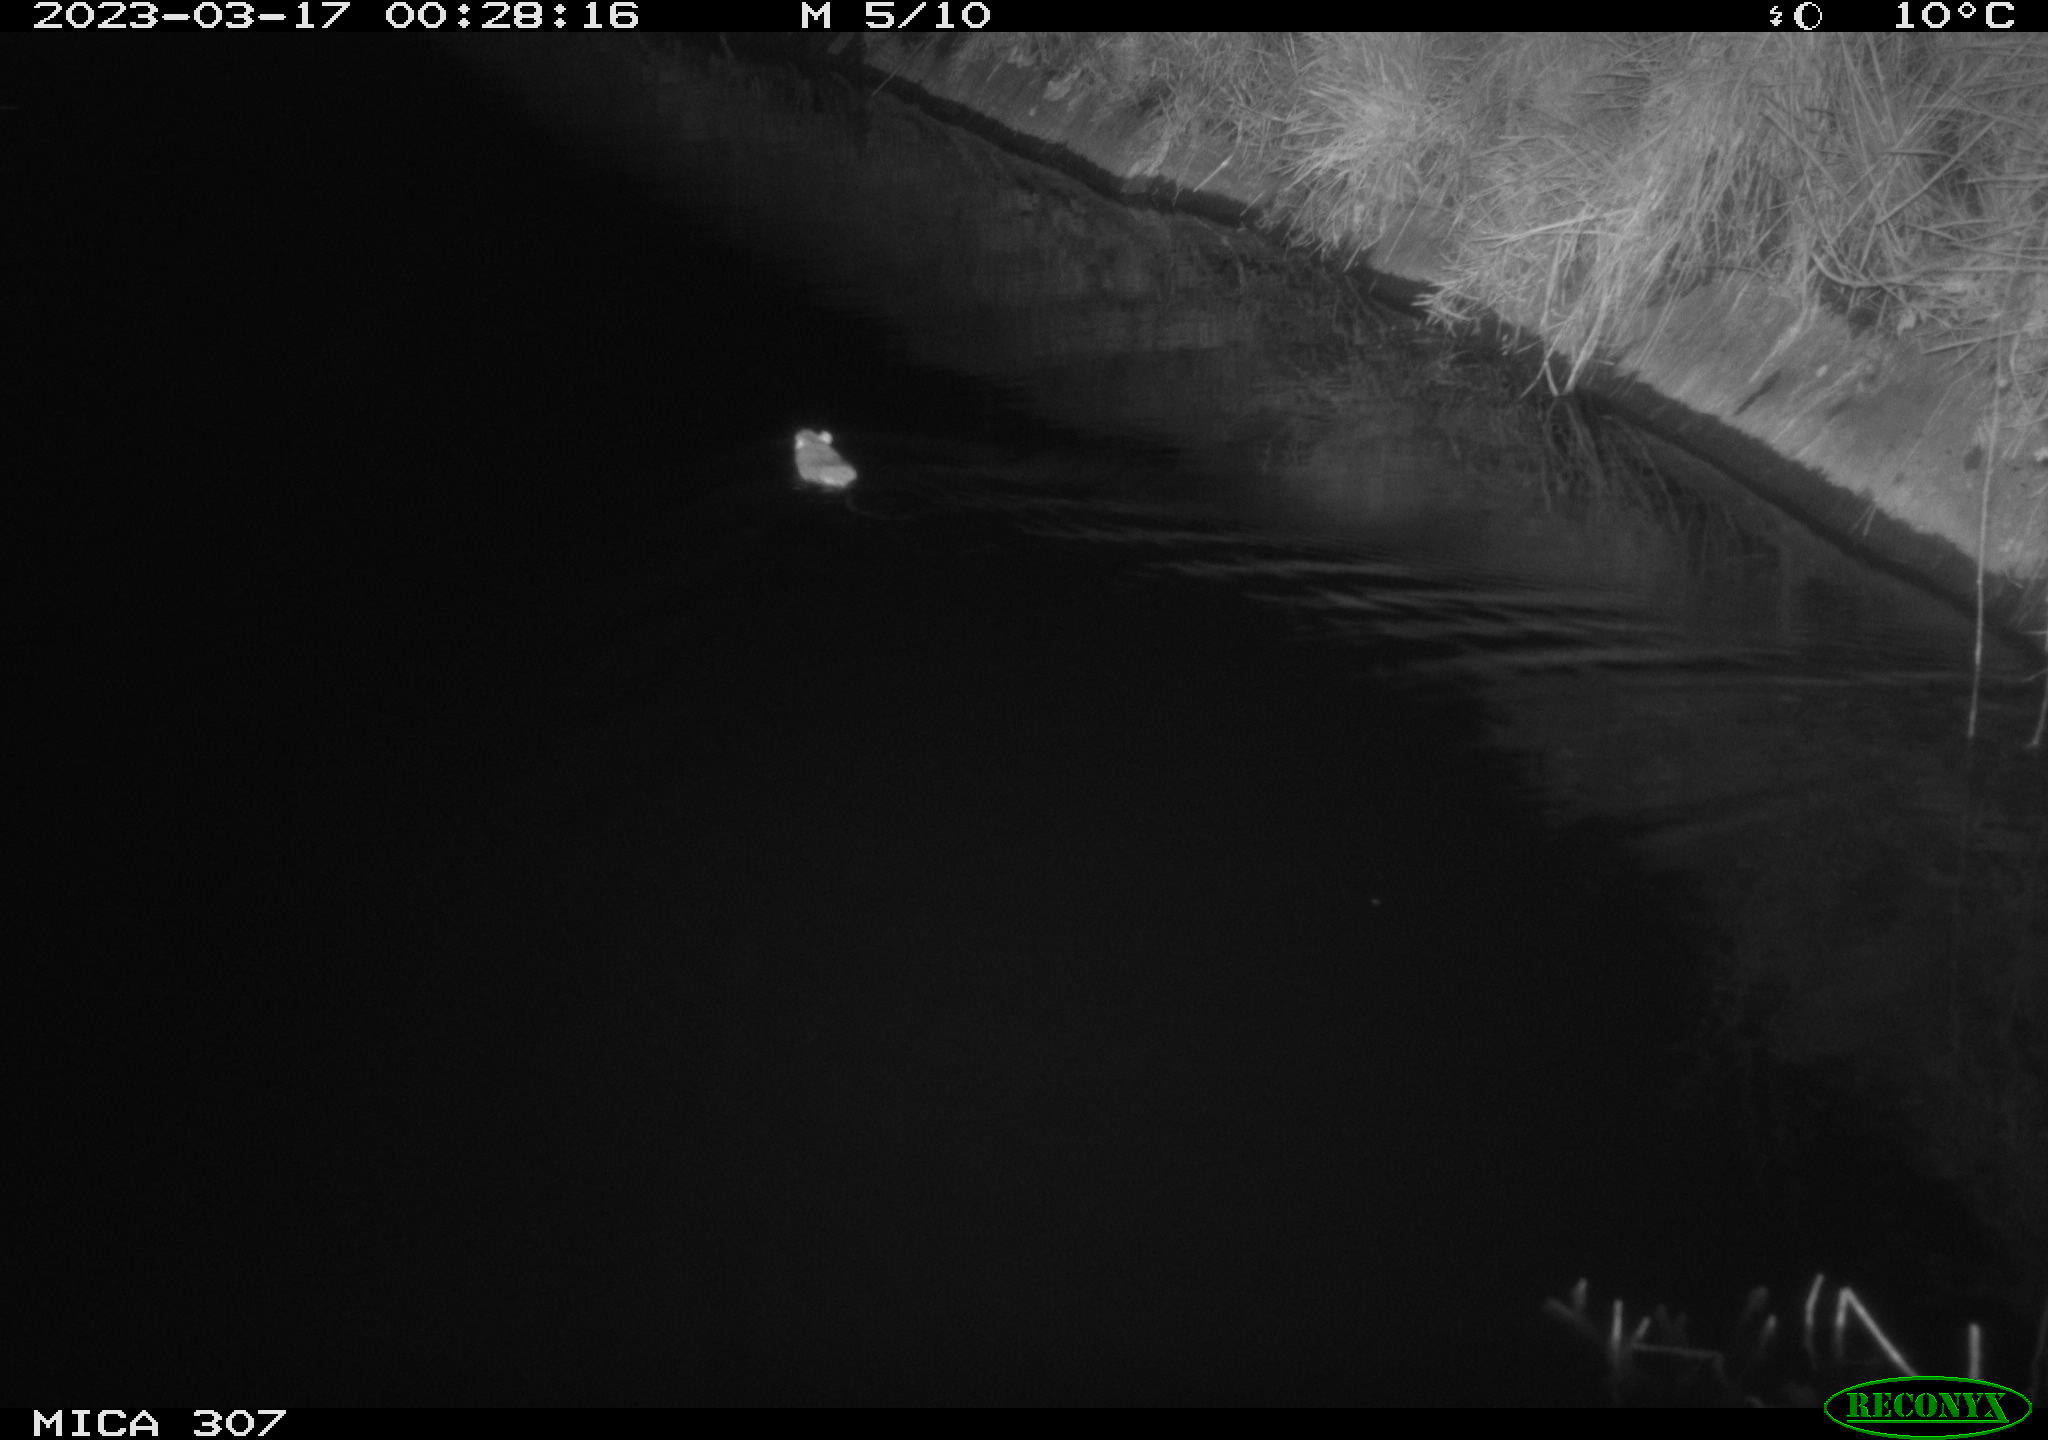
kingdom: Animalia
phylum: Chordata
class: Mammalia
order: Rodentia
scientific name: Rodentia
